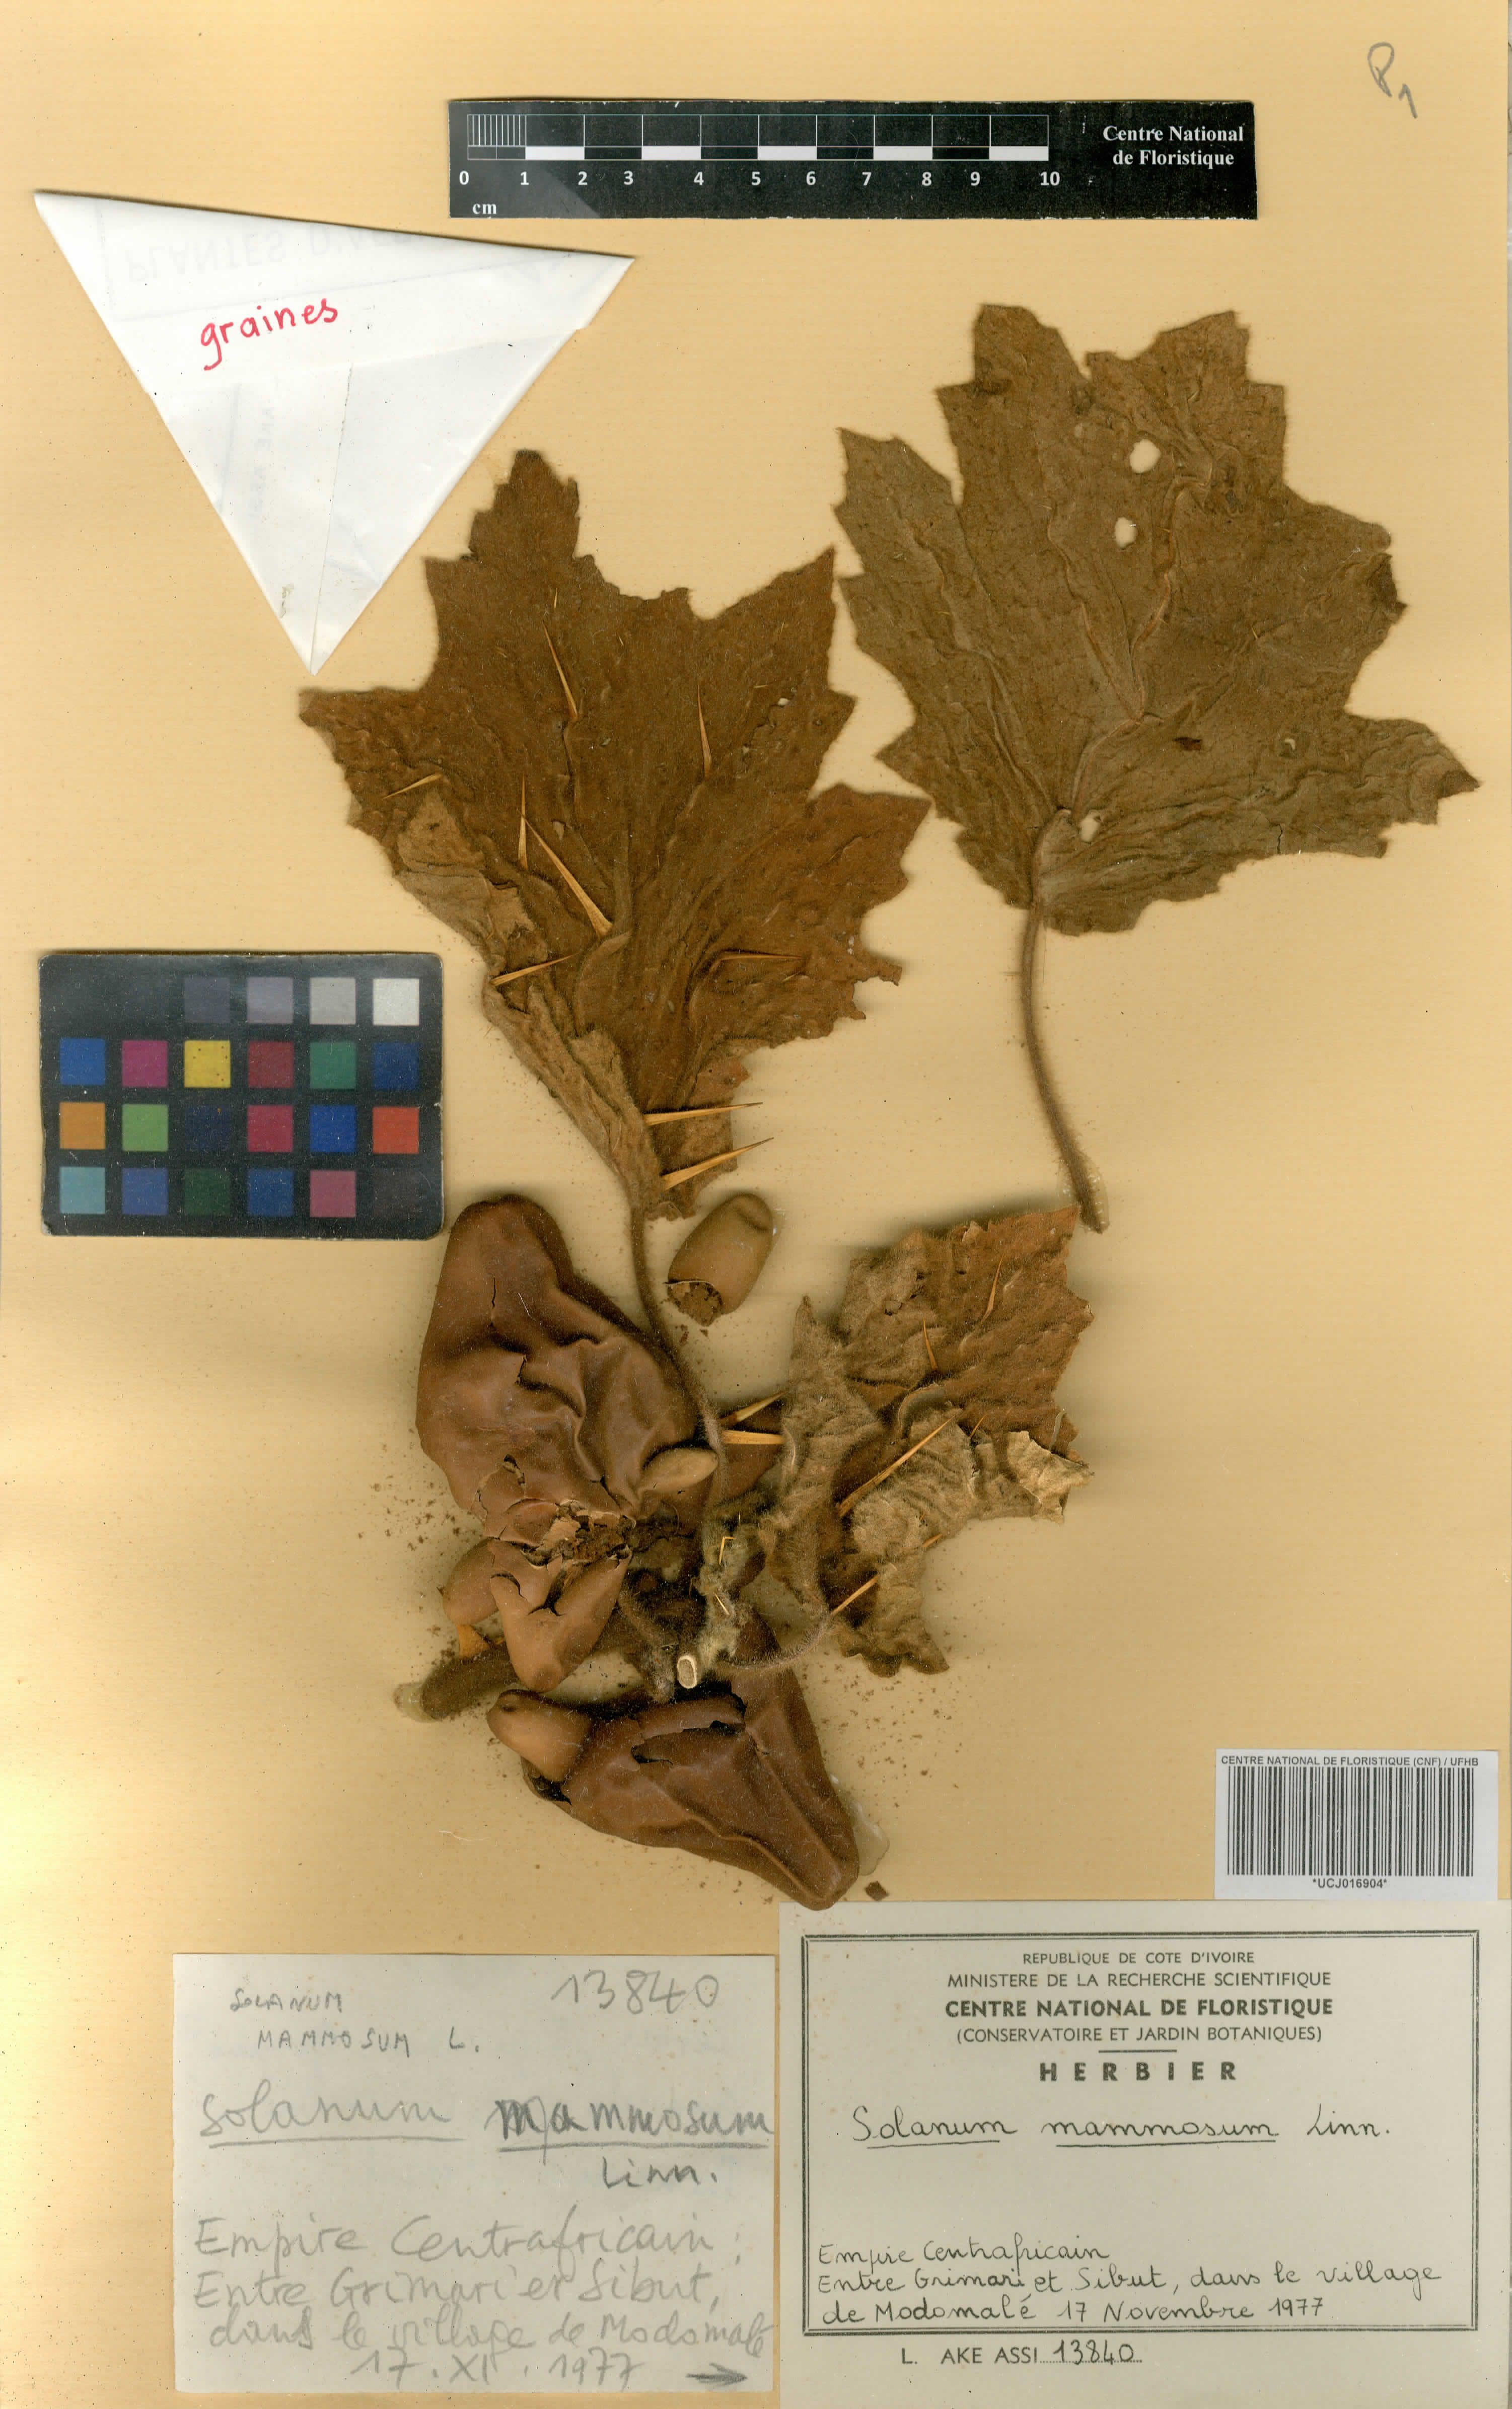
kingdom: Plantae
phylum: Tracheophyta
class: Magnoliopsida
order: Solanales
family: Solanaceae
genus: Solanum
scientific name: Solanum mammosum
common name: Nipple fruit
